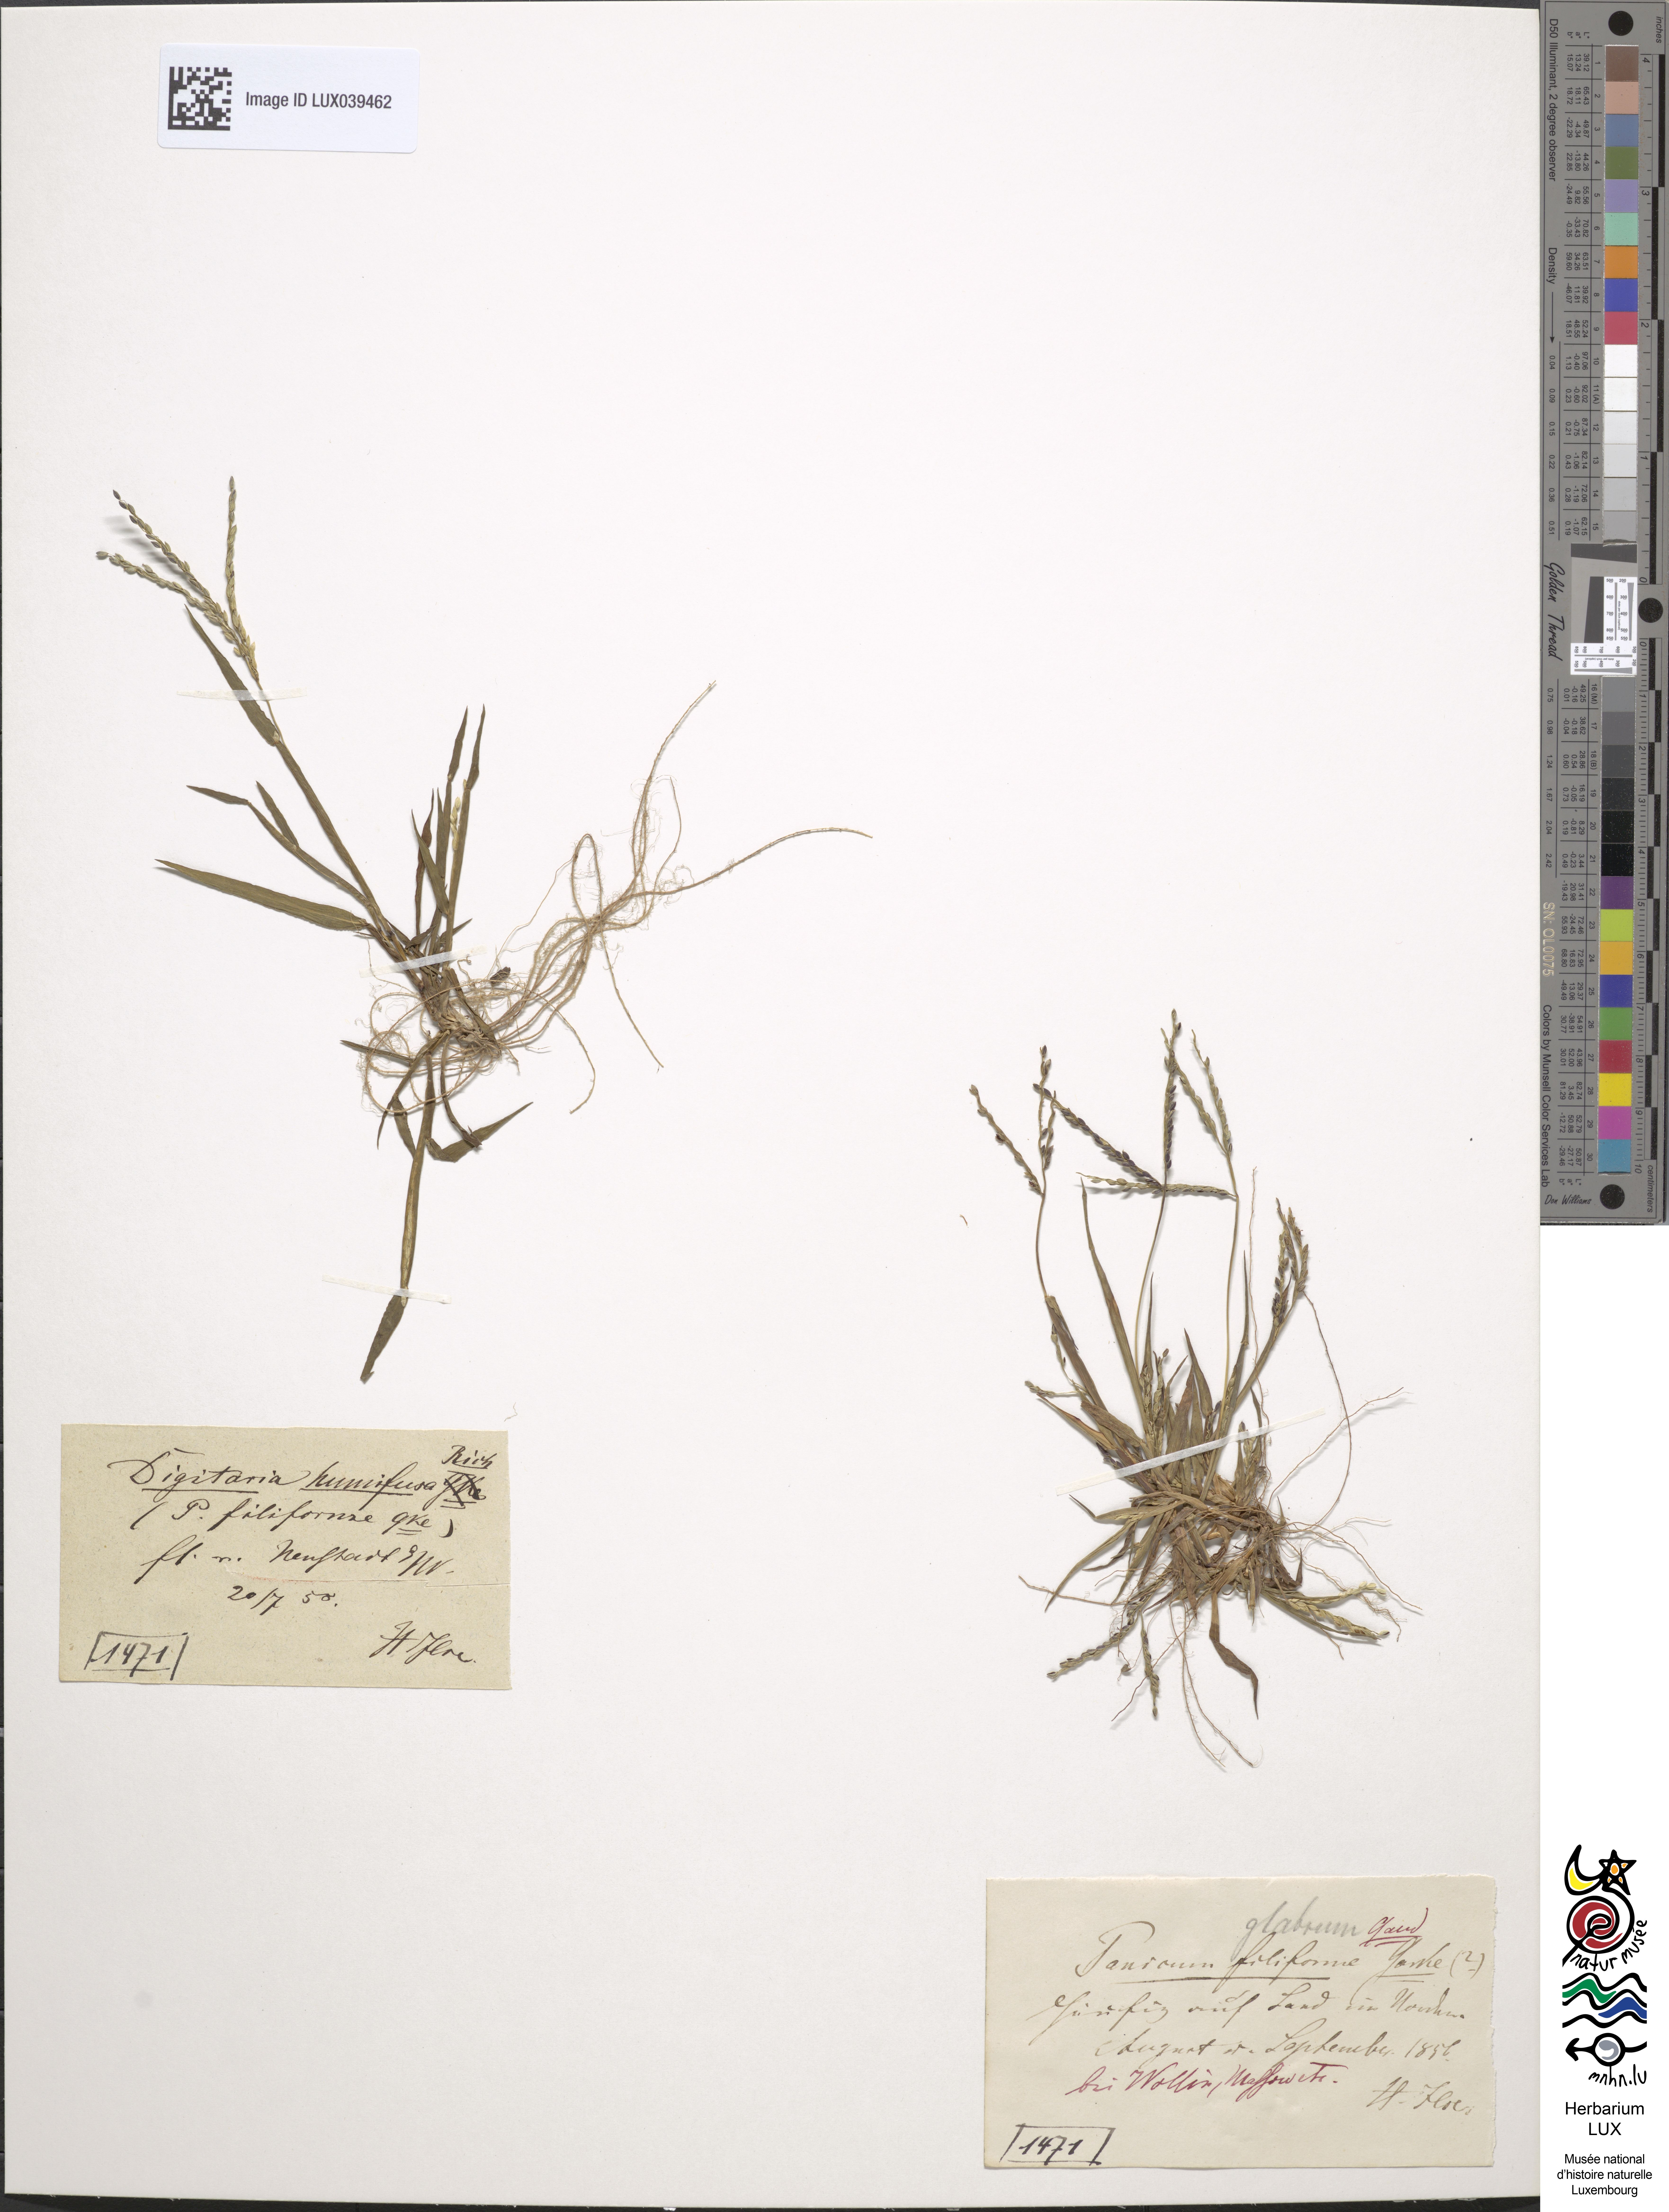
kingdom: Plantae
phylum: Tracheophyta
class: Liliopsida
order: Poales
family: Poaceae
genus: Digitaria
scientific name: Digitaria ischaemum
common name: Smooth crabgrass
